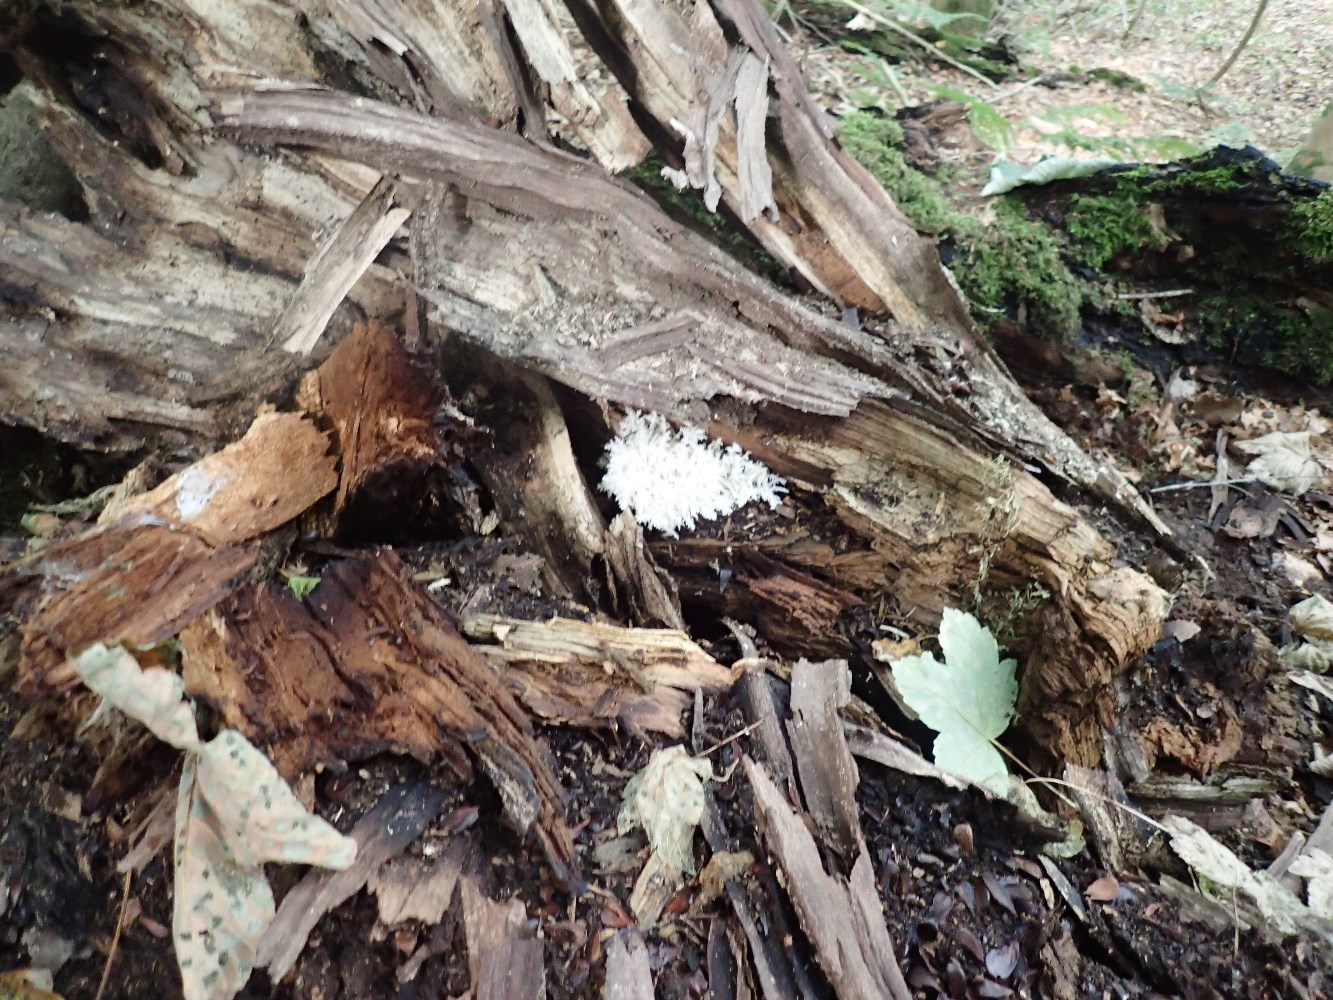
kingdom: Fungi
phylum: Basidiomycota
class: Agaricomycetes
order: Russulales
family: Hericiaceae
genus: Hericium
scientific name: Hericium coralloides
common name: koralpigsvamp
